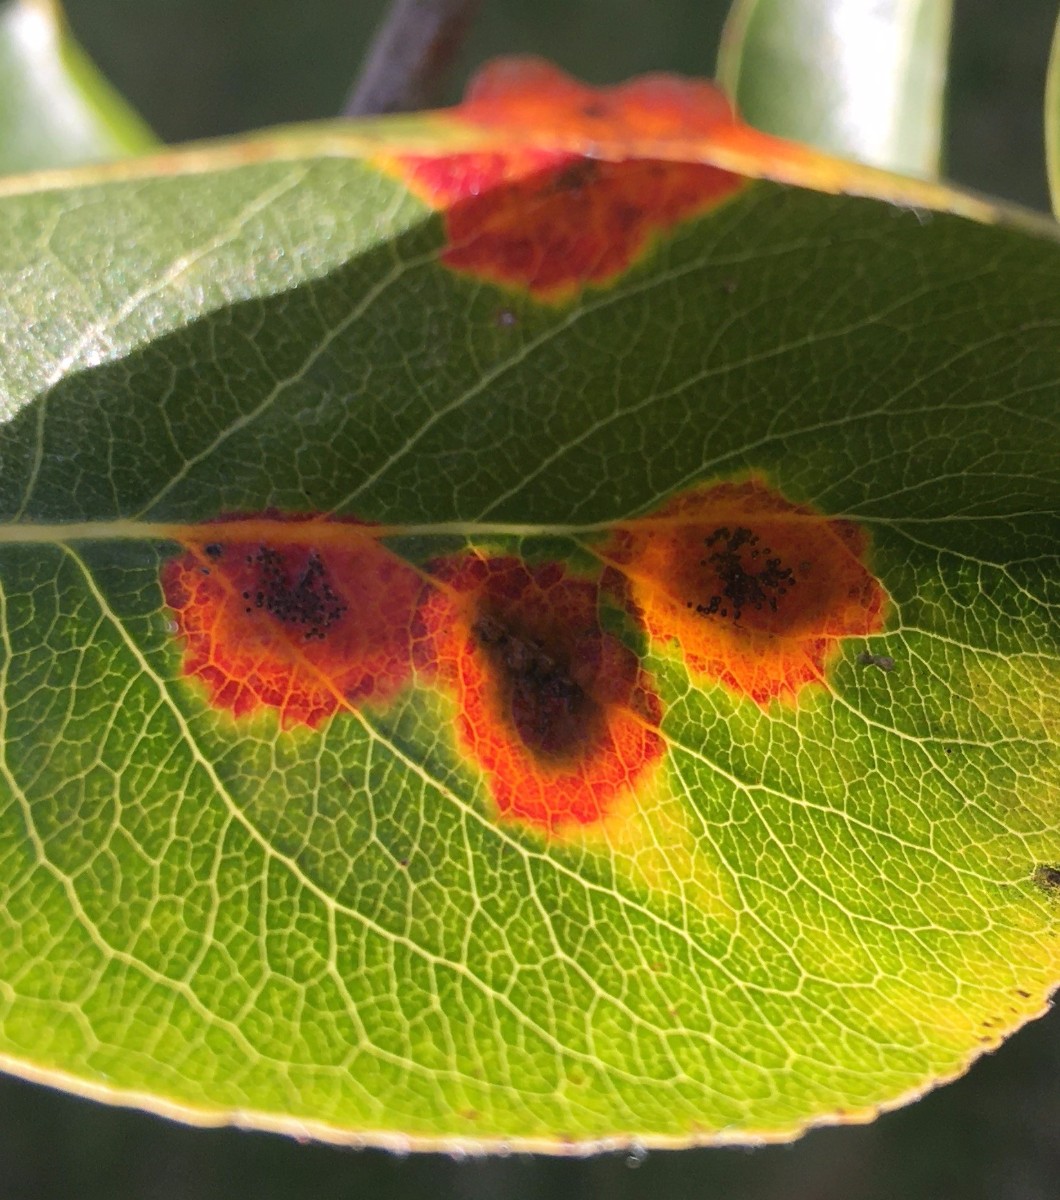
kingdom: Fungi
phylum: Basidiomycota
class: Pucciniomycetes
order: Pucciniales
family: Gymnosporangiaceae
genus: Gymnosporangium
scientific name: Gymnosporangium sabinae
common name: pæregitter-bævrerust
